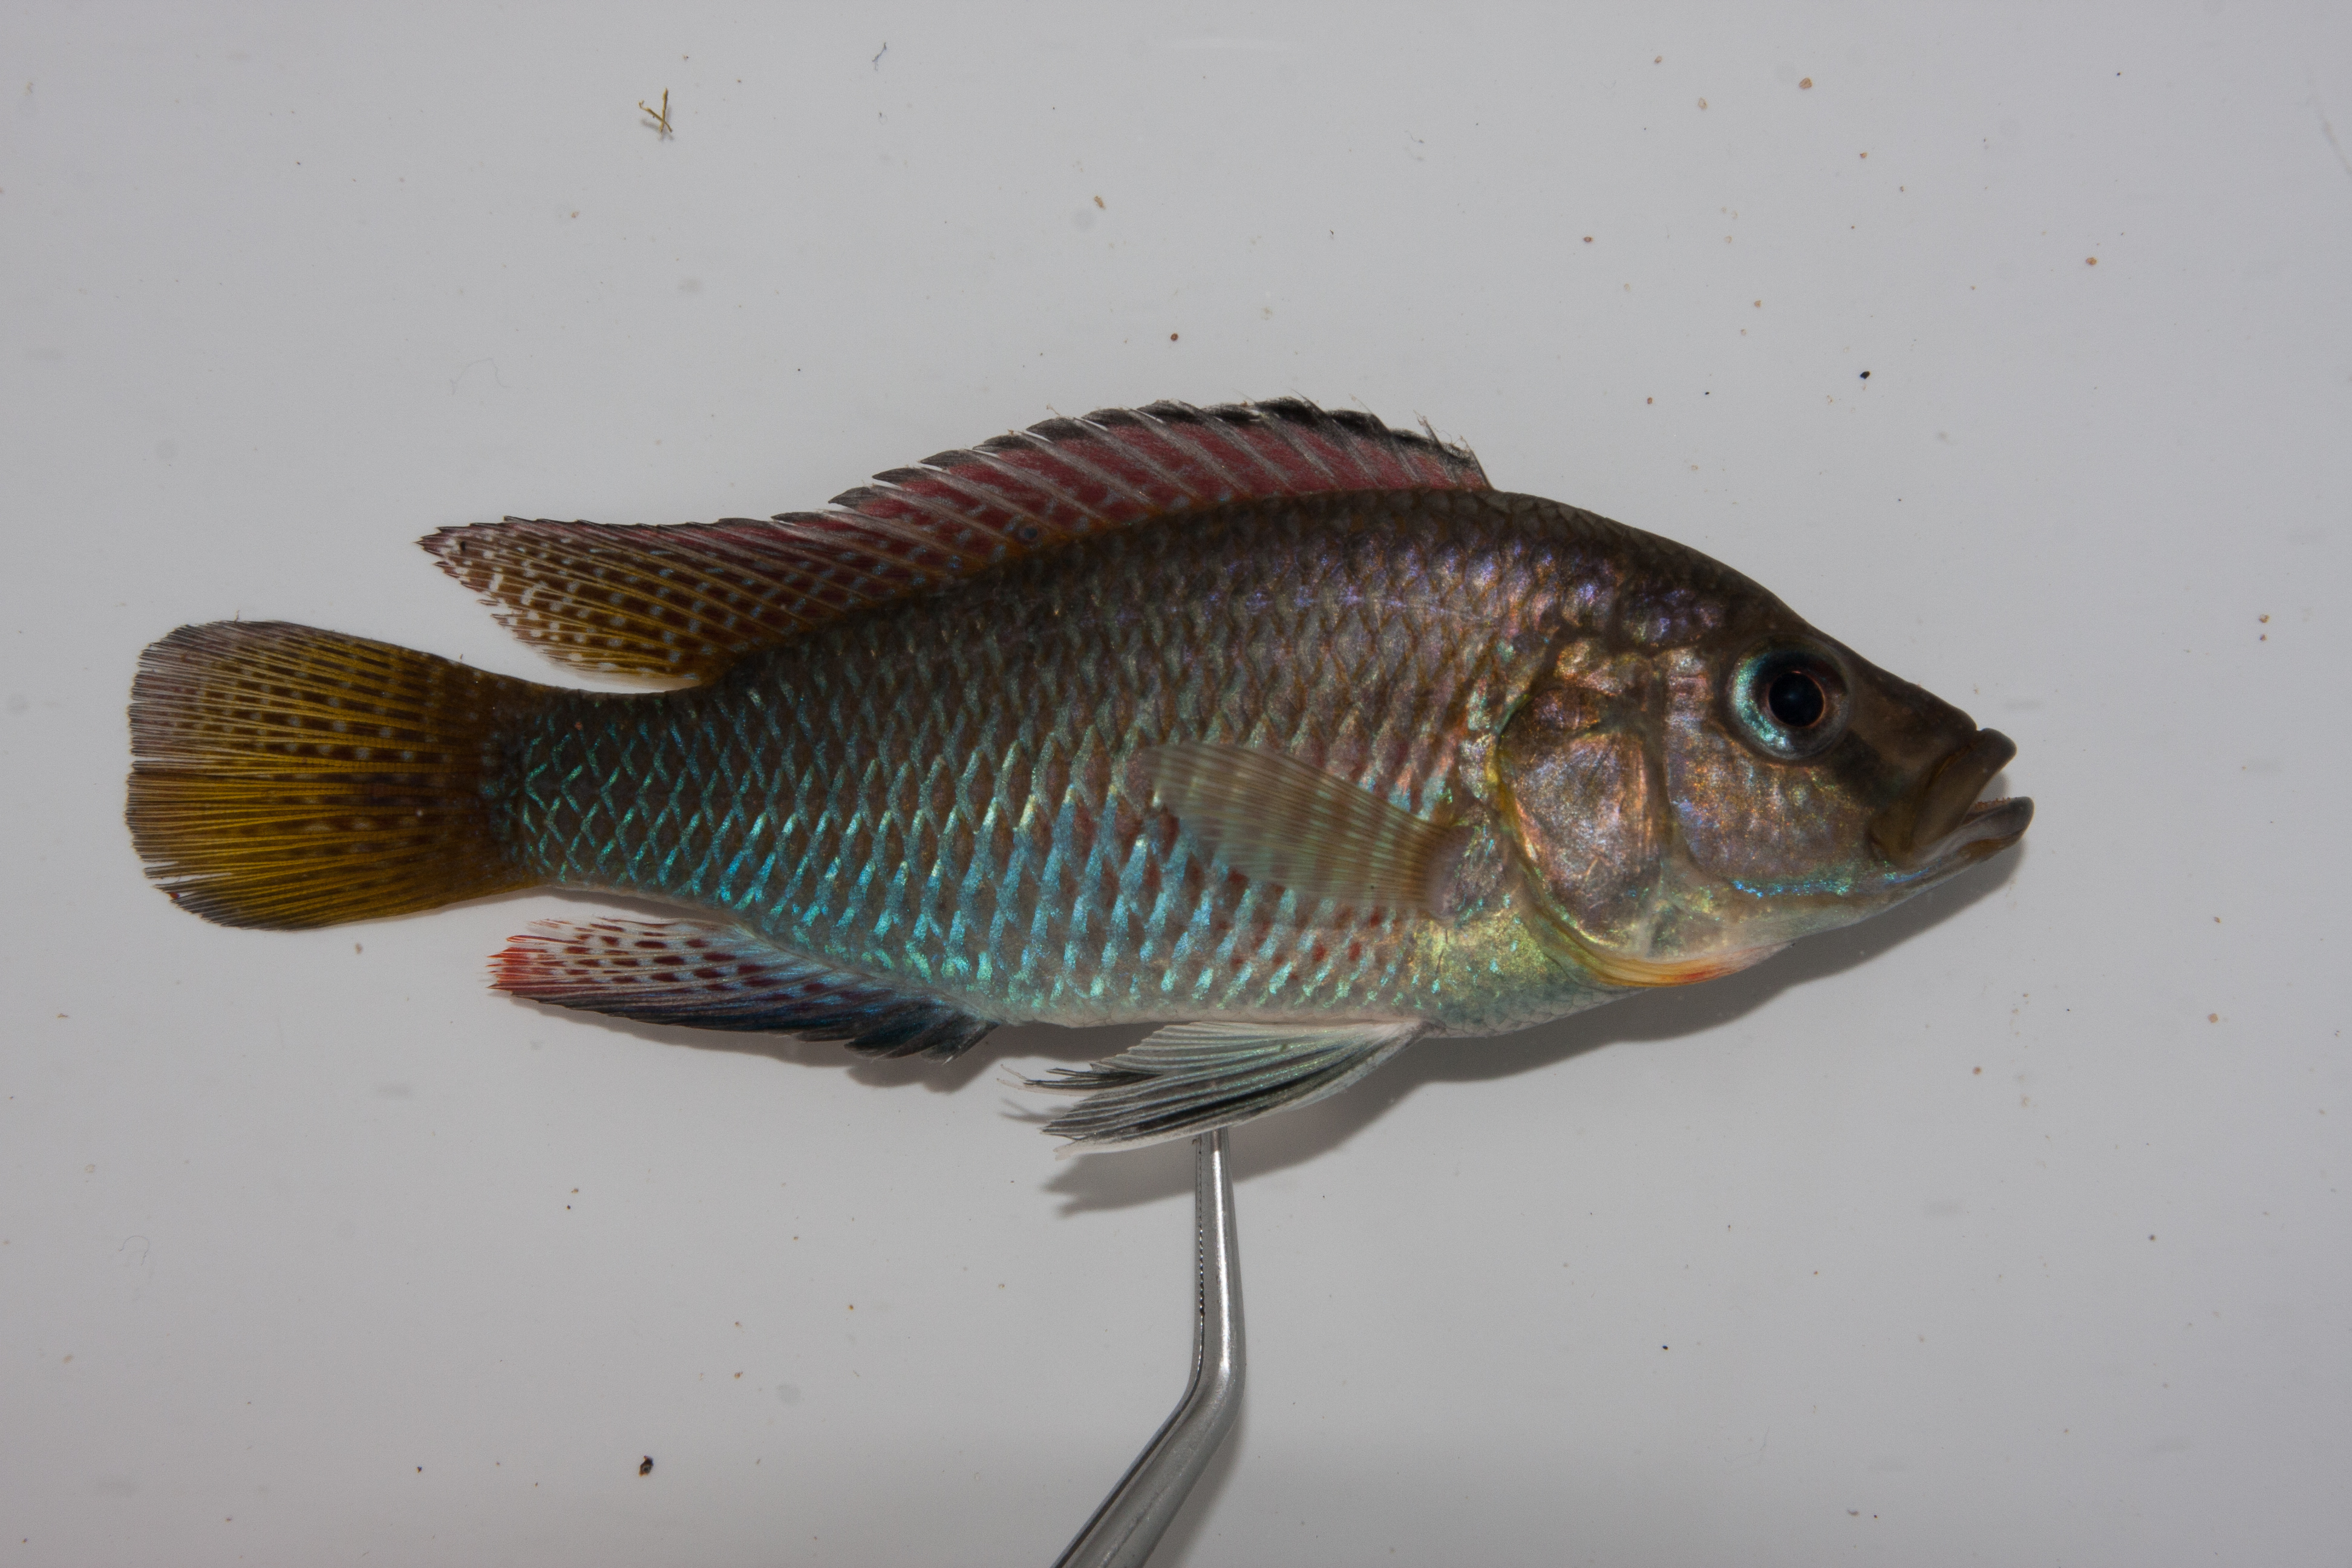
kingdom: Animalia
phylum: Chordata
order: Perciformes
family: Cichlidae
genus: Pseudocrenilabrus
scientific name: Pseudocrenilabrus philander
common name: Southern mouthbrooder
